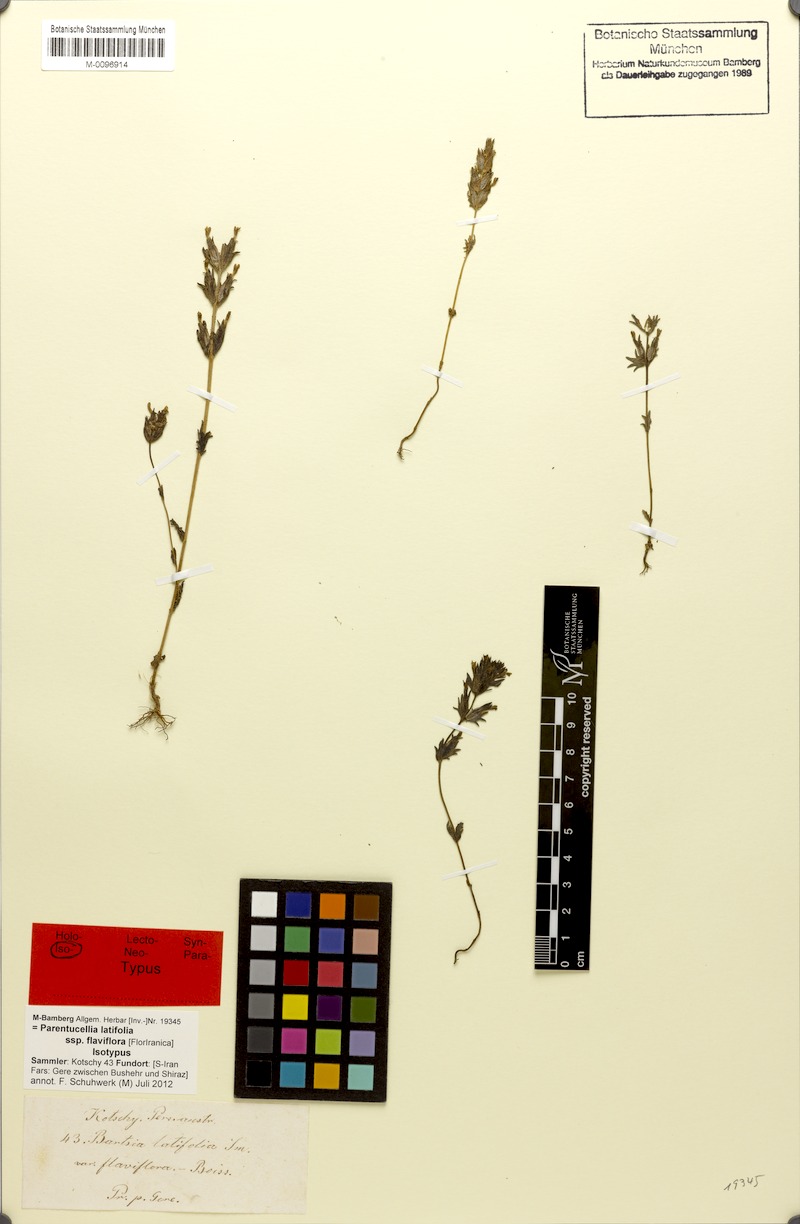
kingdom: Plantae
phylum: Tracheophyta
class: Magnoliopsida
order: Lamiales
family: Orobanchaceae
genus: Parentucellia
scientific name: Parentucellia latifolia
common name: Broadleaf glandweed
